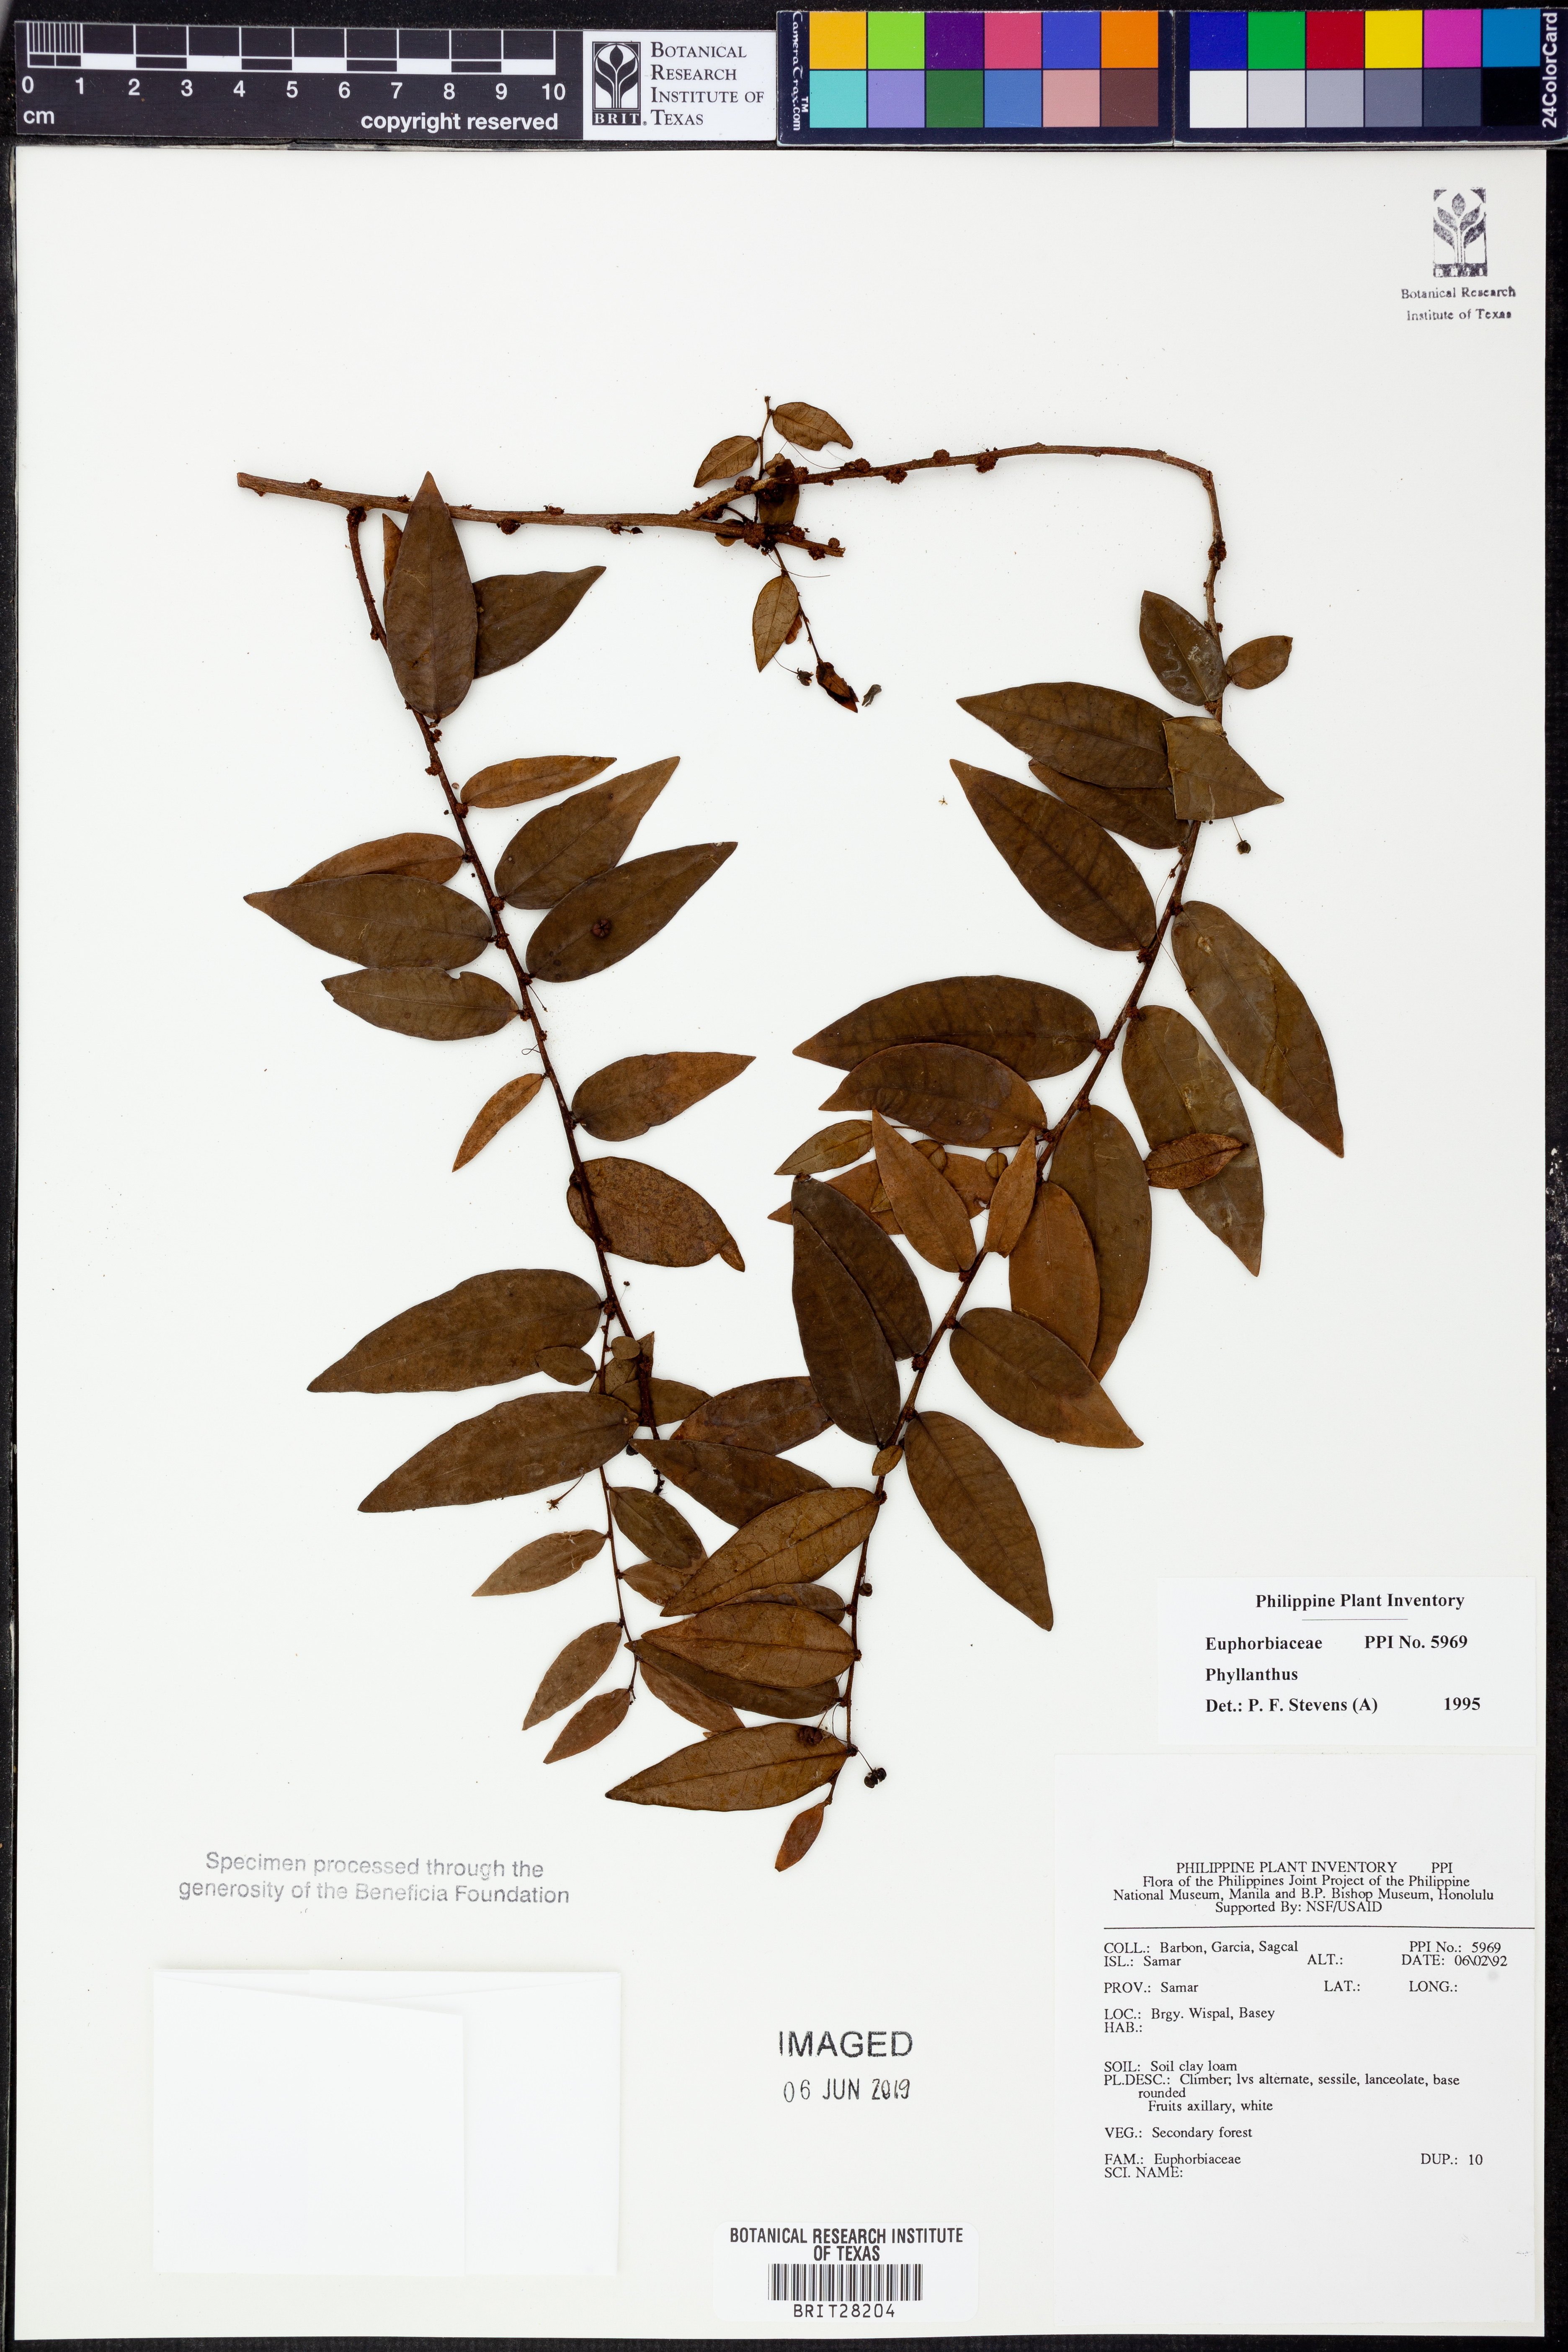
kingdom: Plantae
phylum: Tracheophyta
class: Magnoliopsida
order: Malpighiales
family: Phyllanthaceae
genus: Phyllanthus
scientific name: Phyllanthus
